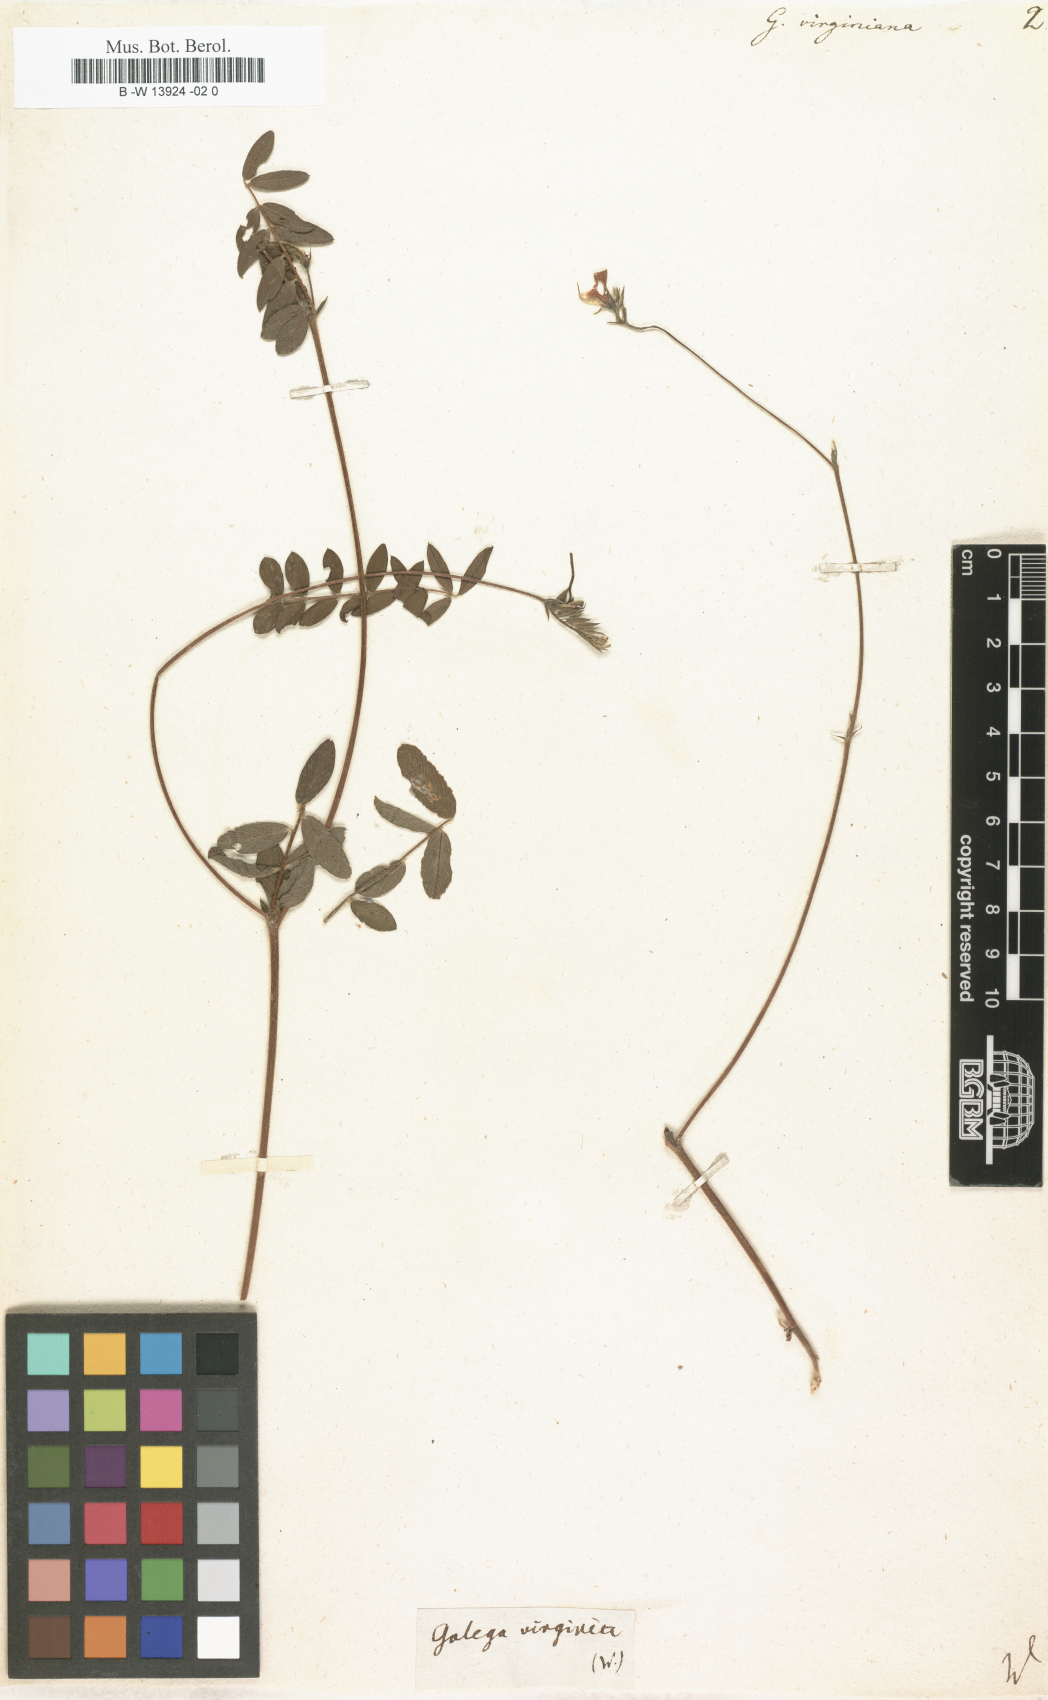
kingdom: Plantae
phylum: Tracheophyta
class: Magnoliopsida
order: Fabales
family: Fabaceae
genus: Tephrosia
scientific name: Tephrosia virginiana
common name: Rabbit-pea
